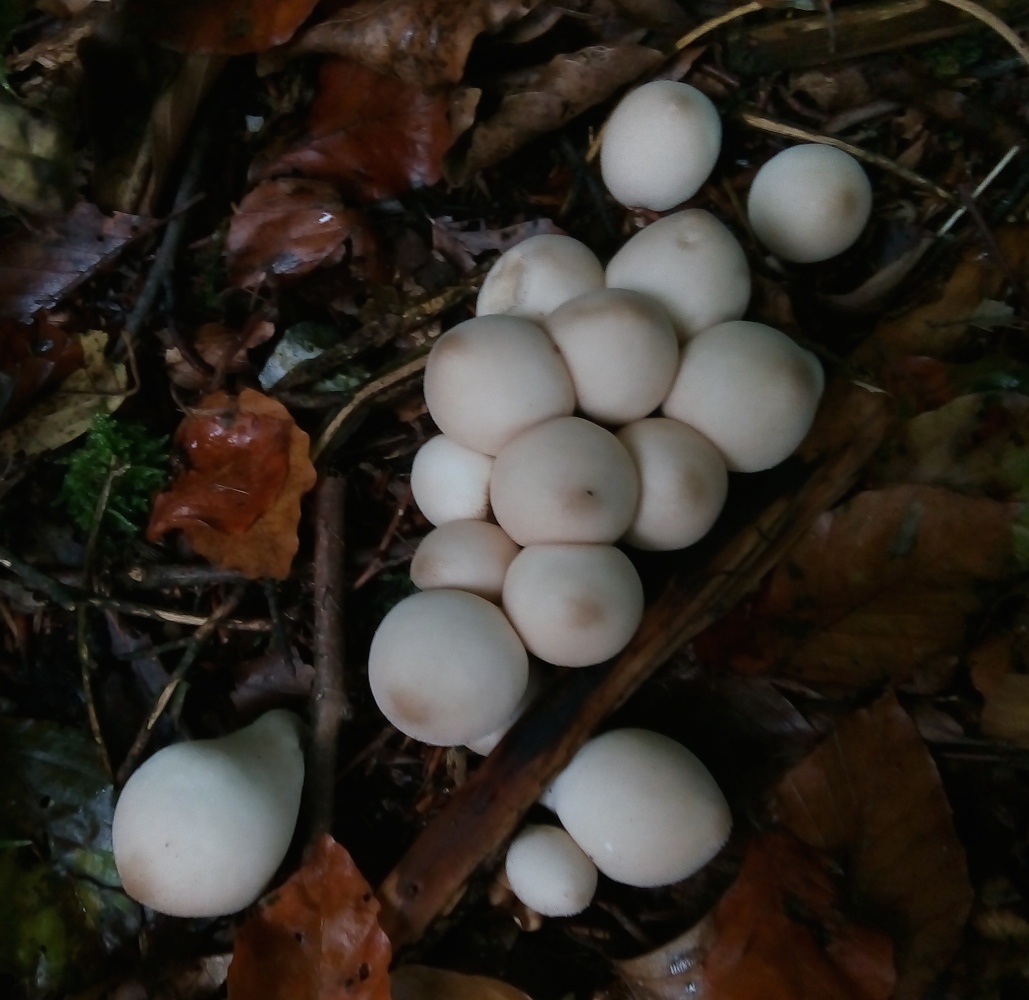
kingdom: Fungi
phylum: Basidiomycota
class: Agaricomycetes
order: Agaricales
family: Lycoperdaceae
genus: Apioperdon
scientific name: Apioperdon pyriforme
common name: pære-støvbold
